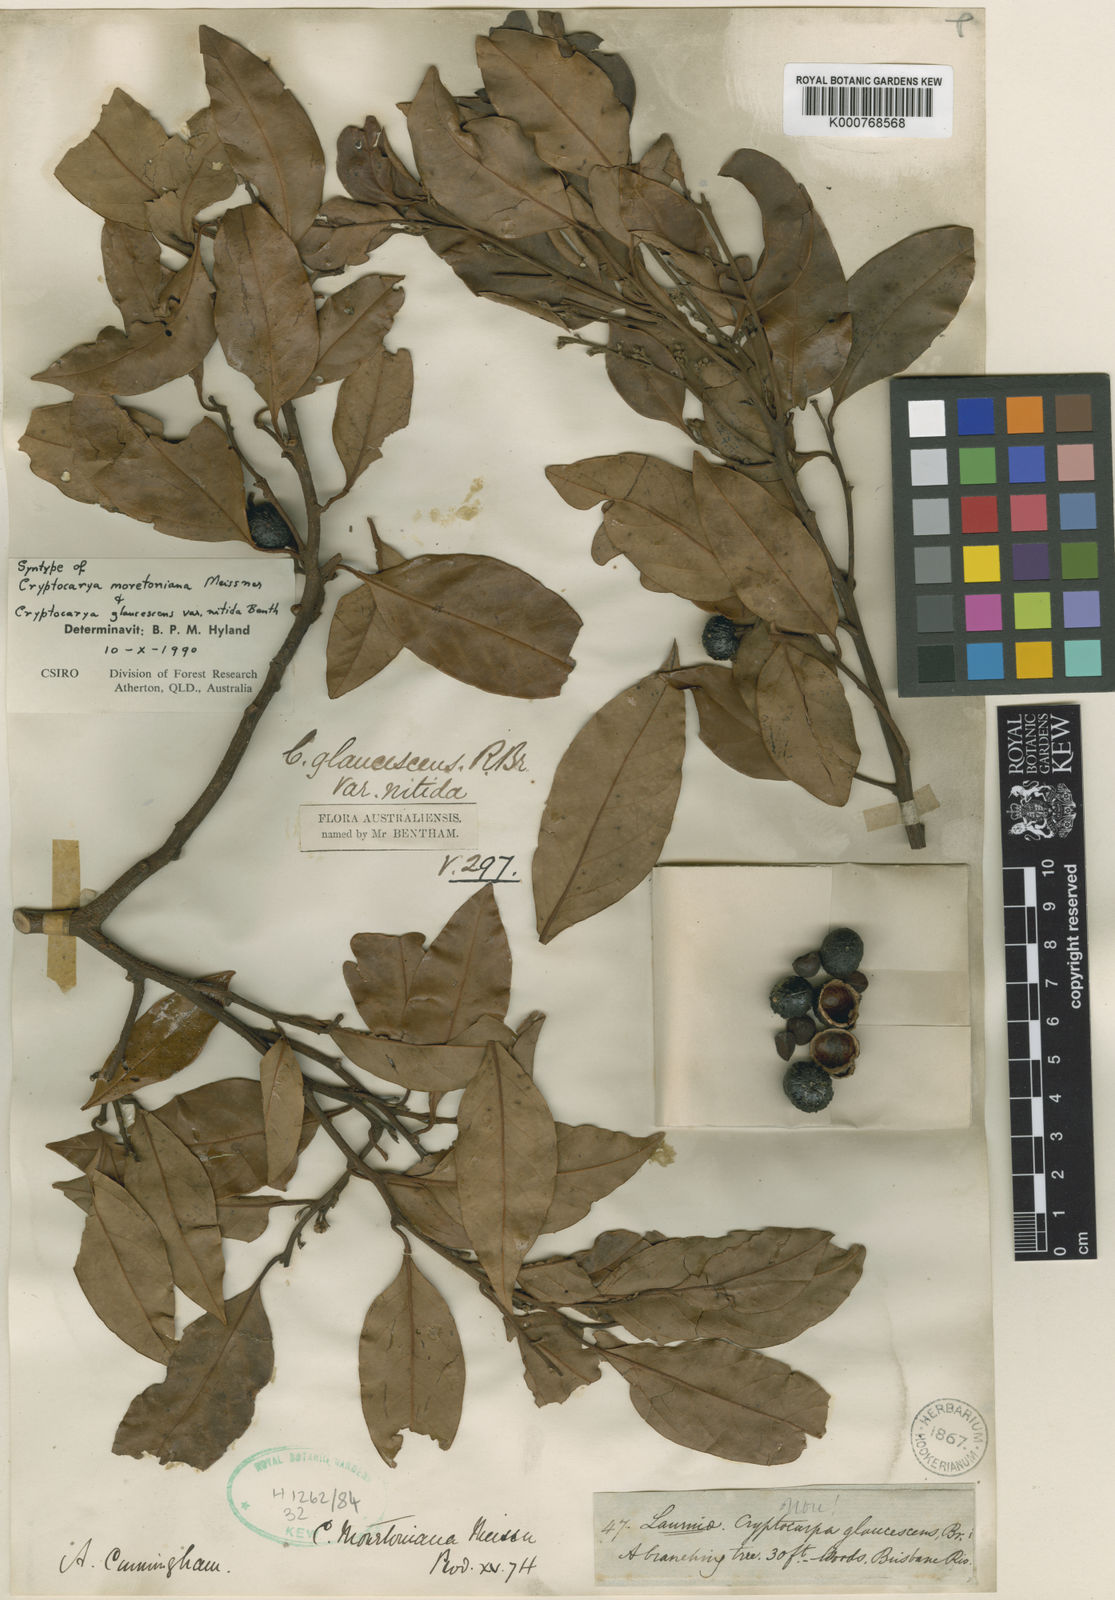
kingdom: Plantae
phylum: Tracheophyta
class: Magnoliopsida
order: Laurales
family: Lauraceae
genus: Cryptocarya
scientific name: Cryptocarya glaucescens
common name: Bolly-laurel
